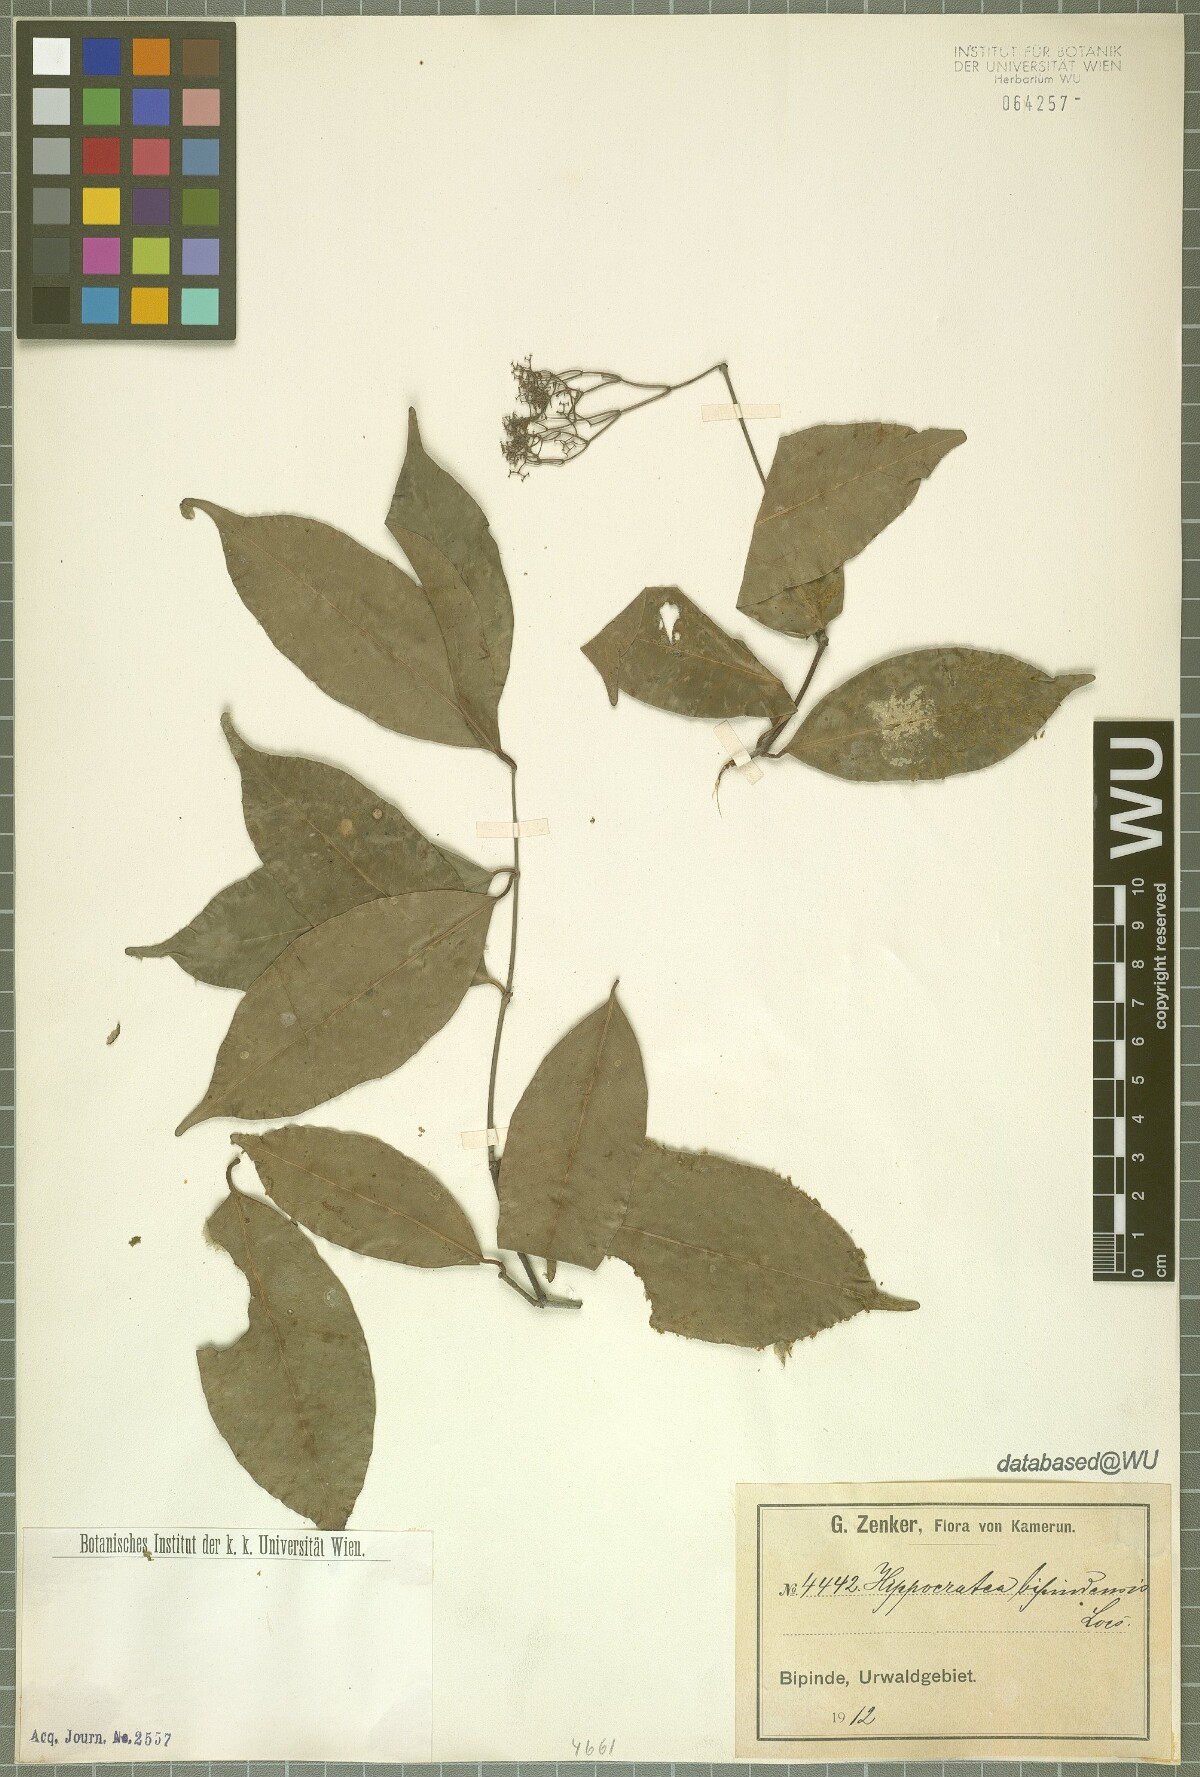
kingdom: Plantae
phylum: Tracheophyta
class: Magnoliopsida
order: Celastrales
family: Celastraceae
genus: Elachyptera
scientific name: Elachyptera bipindensis
